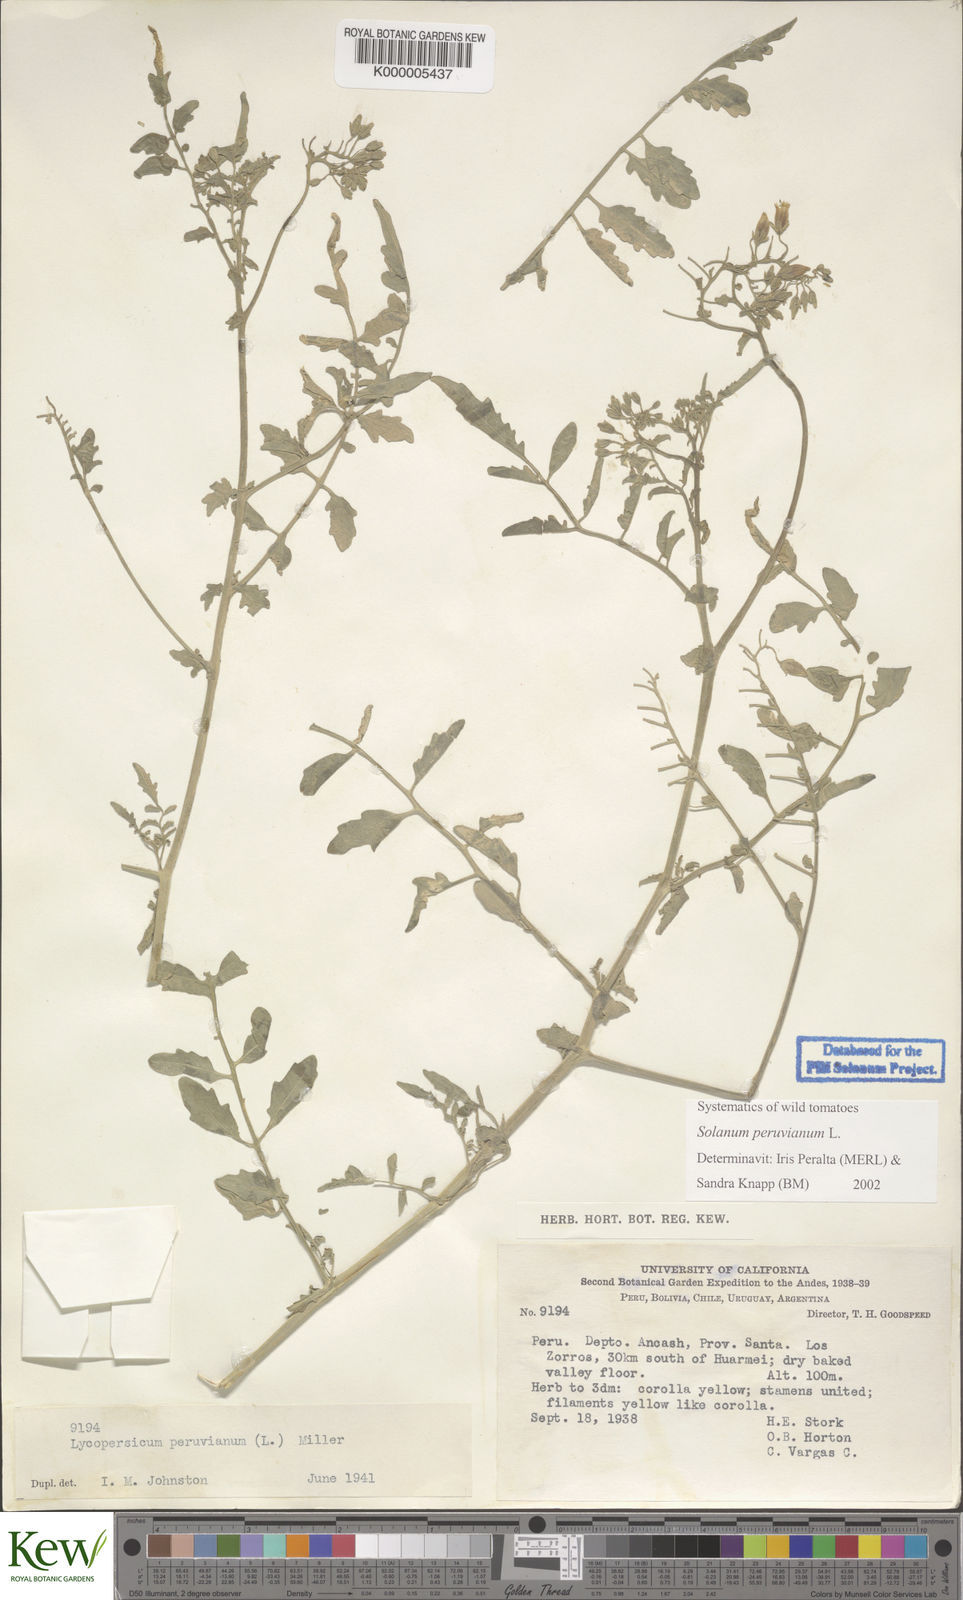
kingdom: Plantae
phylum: Tracheophyta
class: Magnoliopsida
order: Solanales
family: Solanaceae
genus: Solanum
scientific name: Solanum peruvianum
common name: Peruvian nightshade
